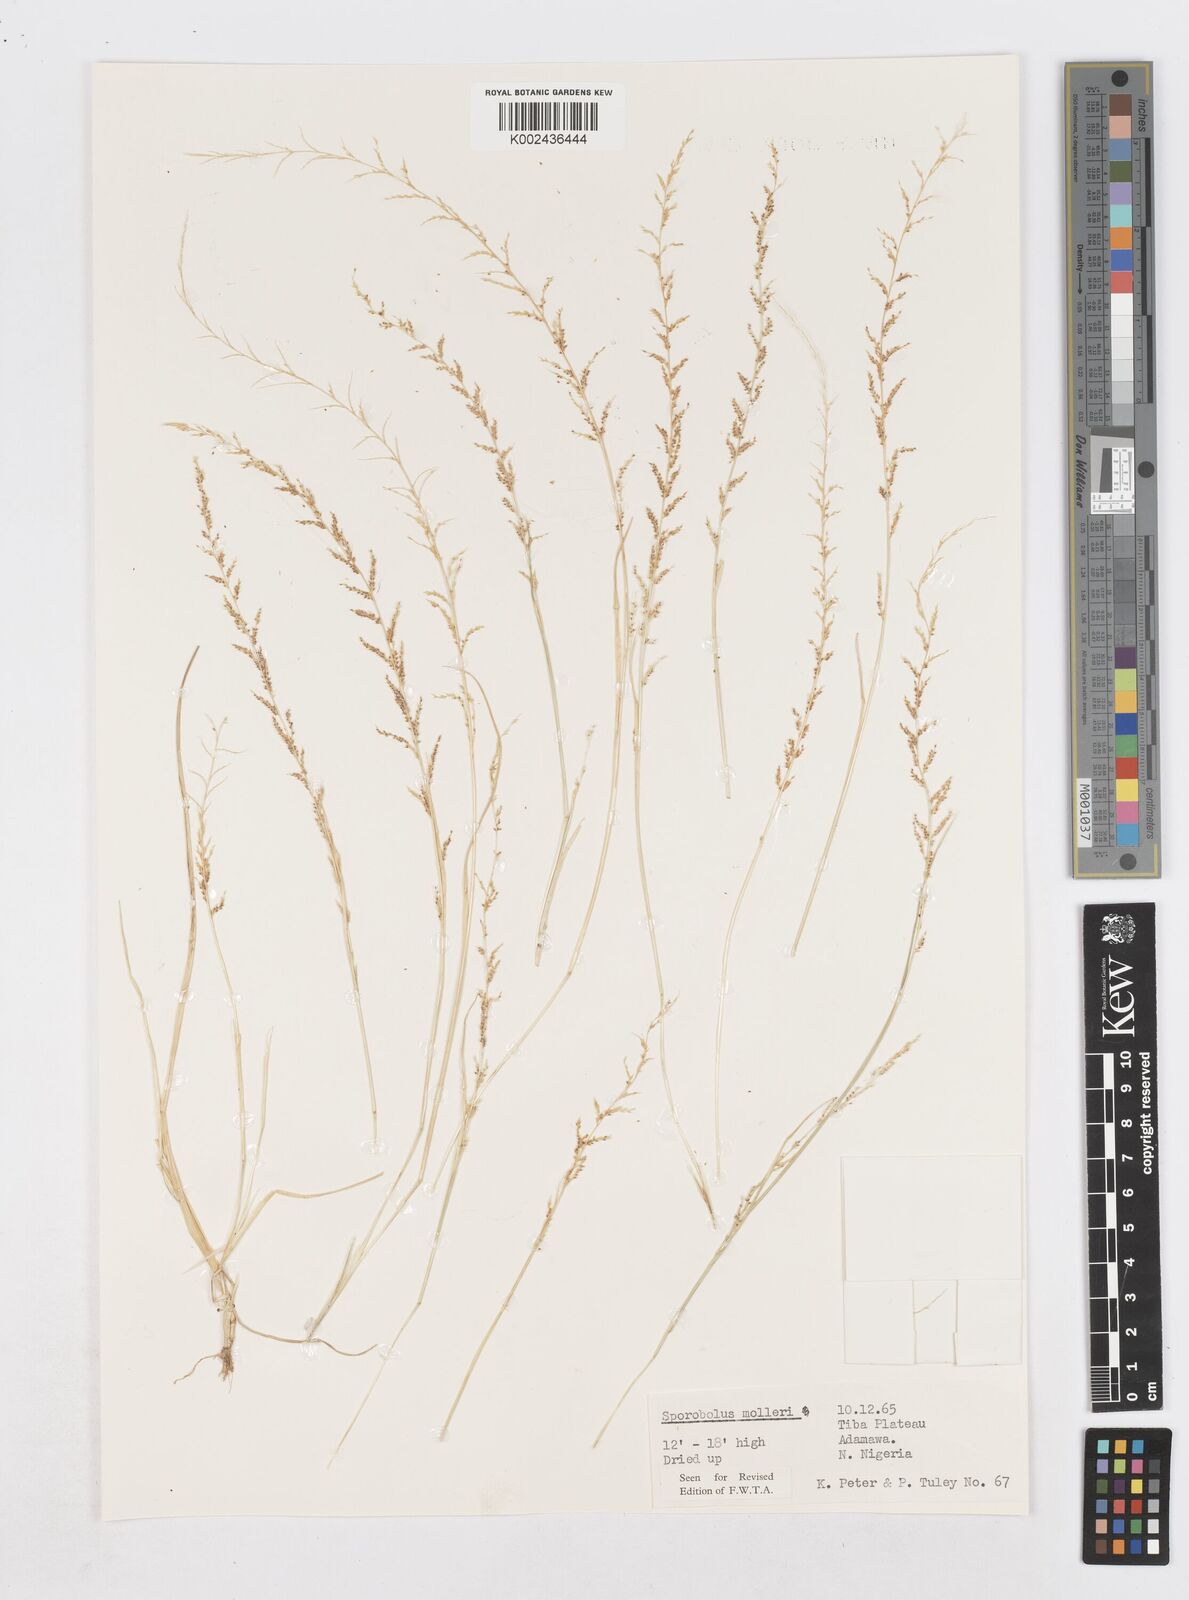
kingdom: Plantae
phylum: Tracheophyta
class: Liliopsida
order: Poales
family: Poaceae
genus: Sporobolus
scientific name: Sporobolus molleri
